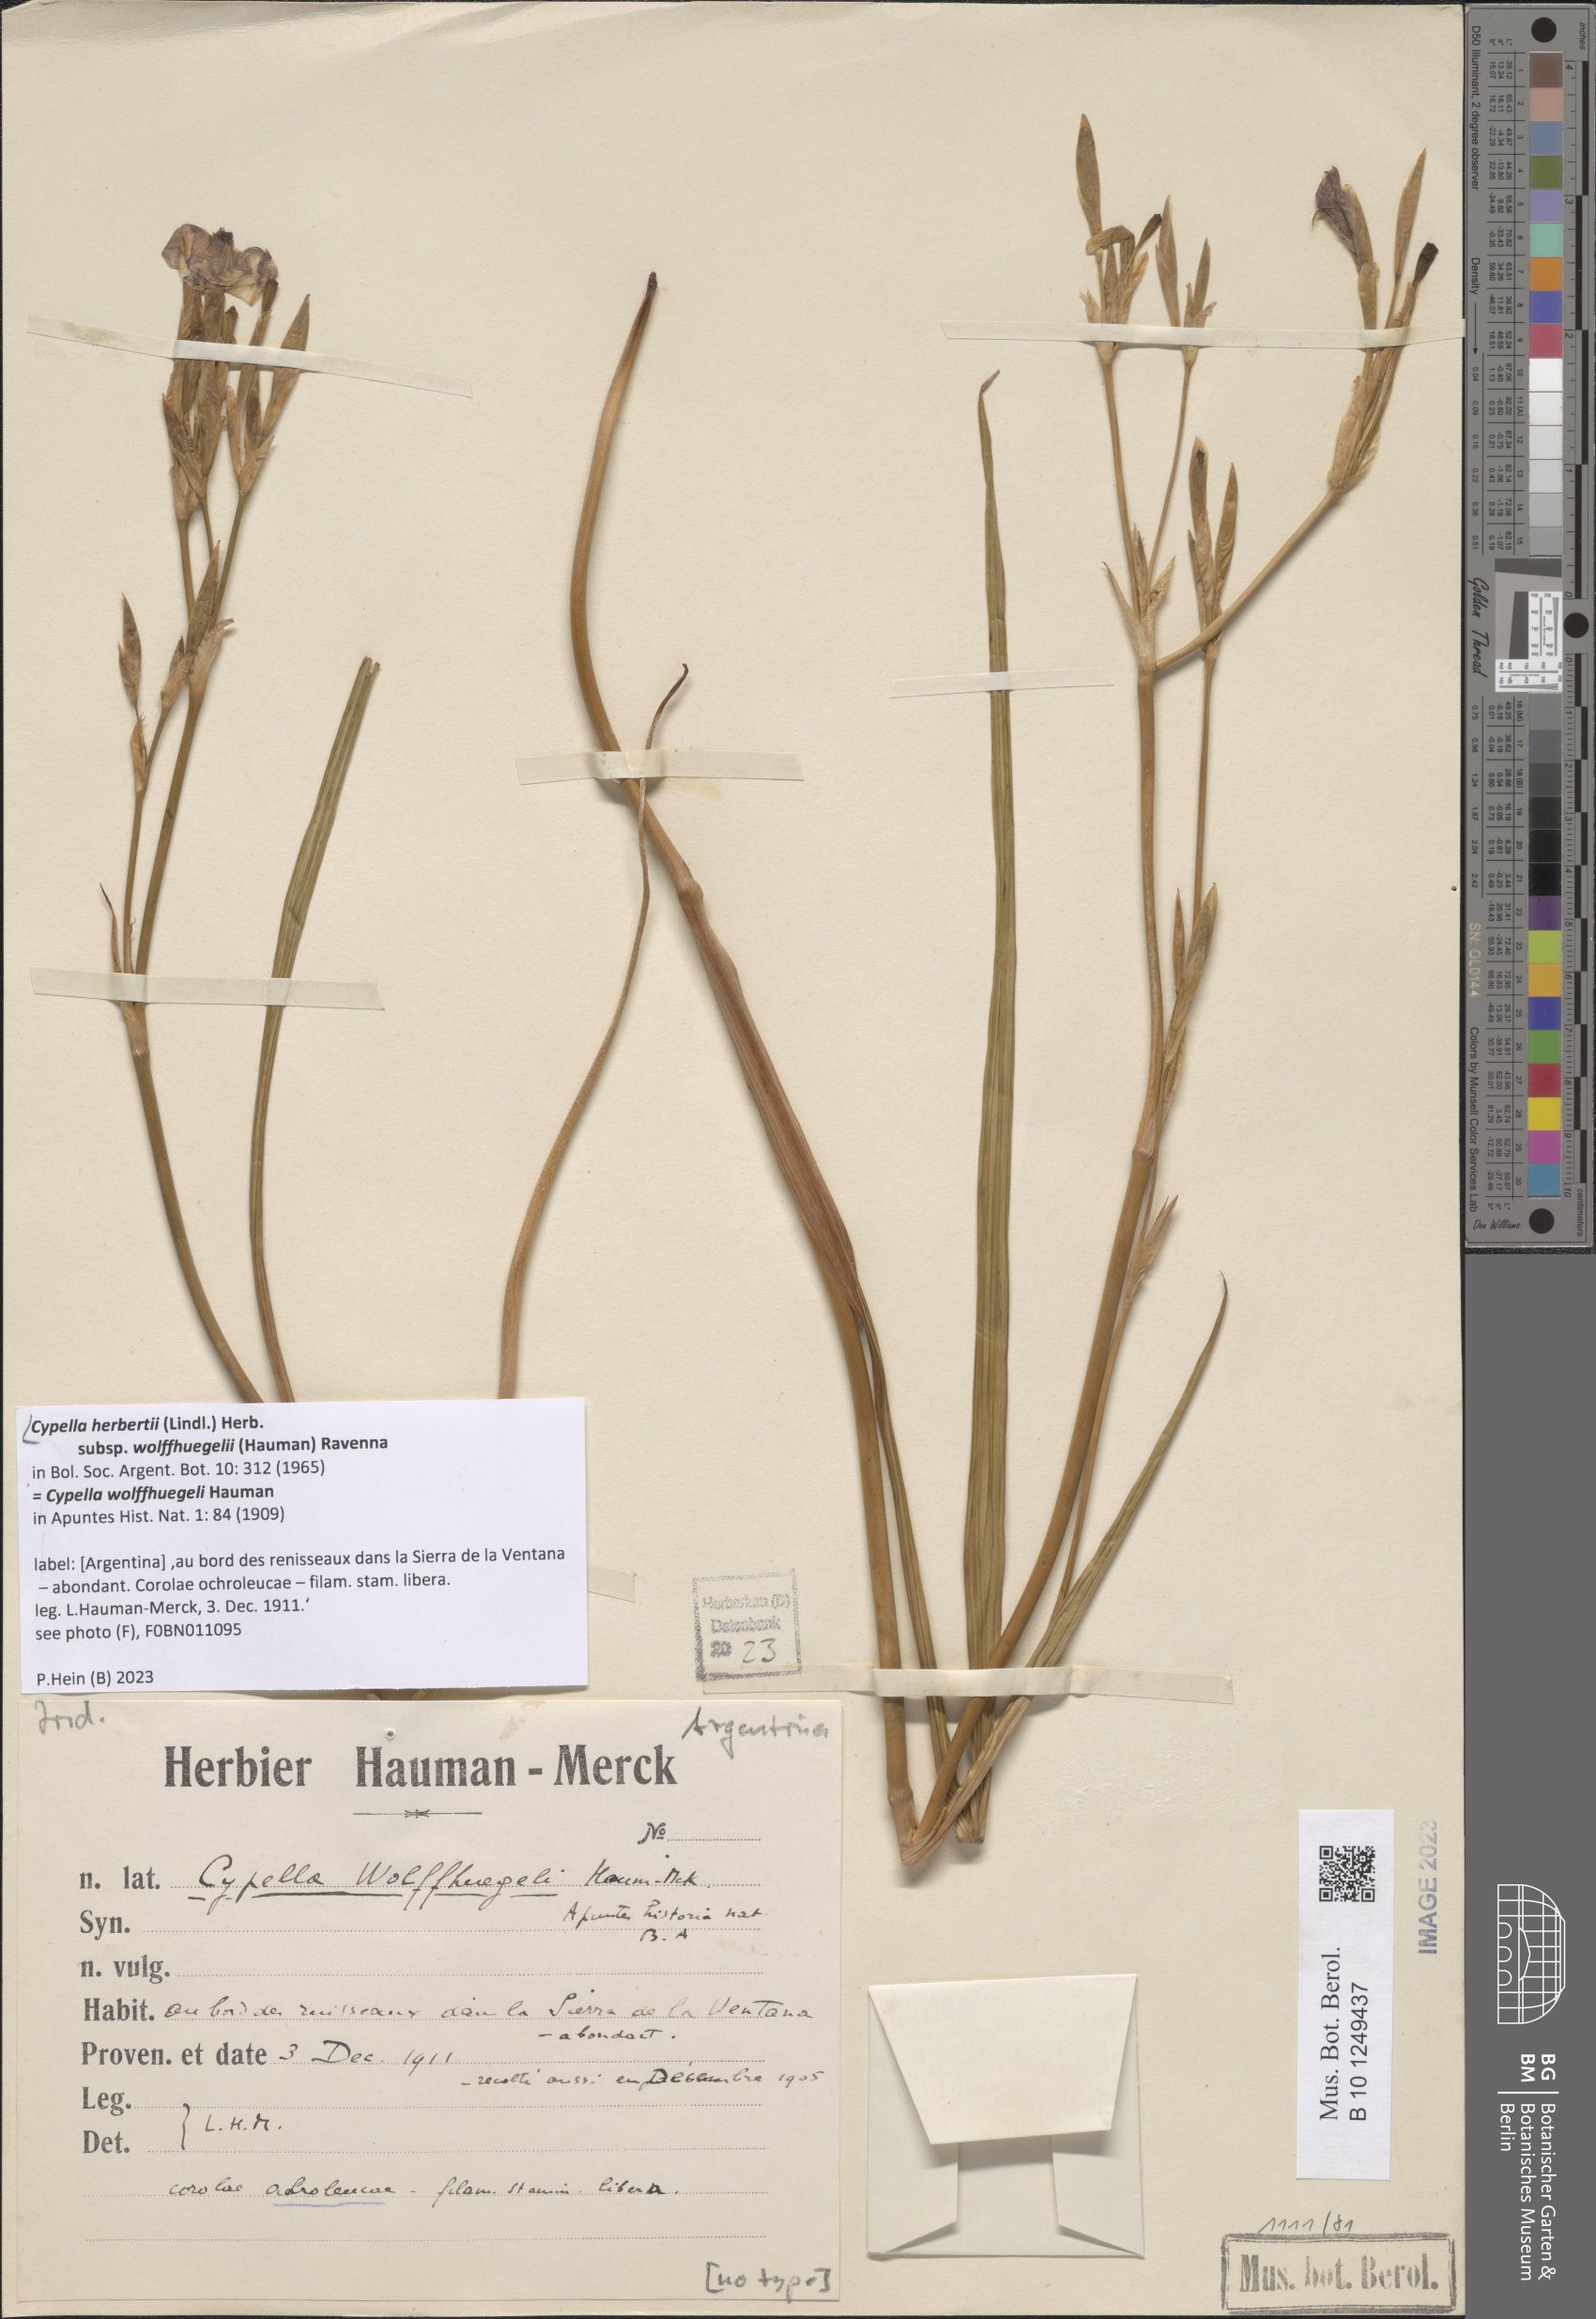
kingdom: Plantae
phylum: Tracheophyta
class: Liliopsida
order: Asparagales
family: Iridaceae
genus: Cypella
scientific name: Cypella herbertii
